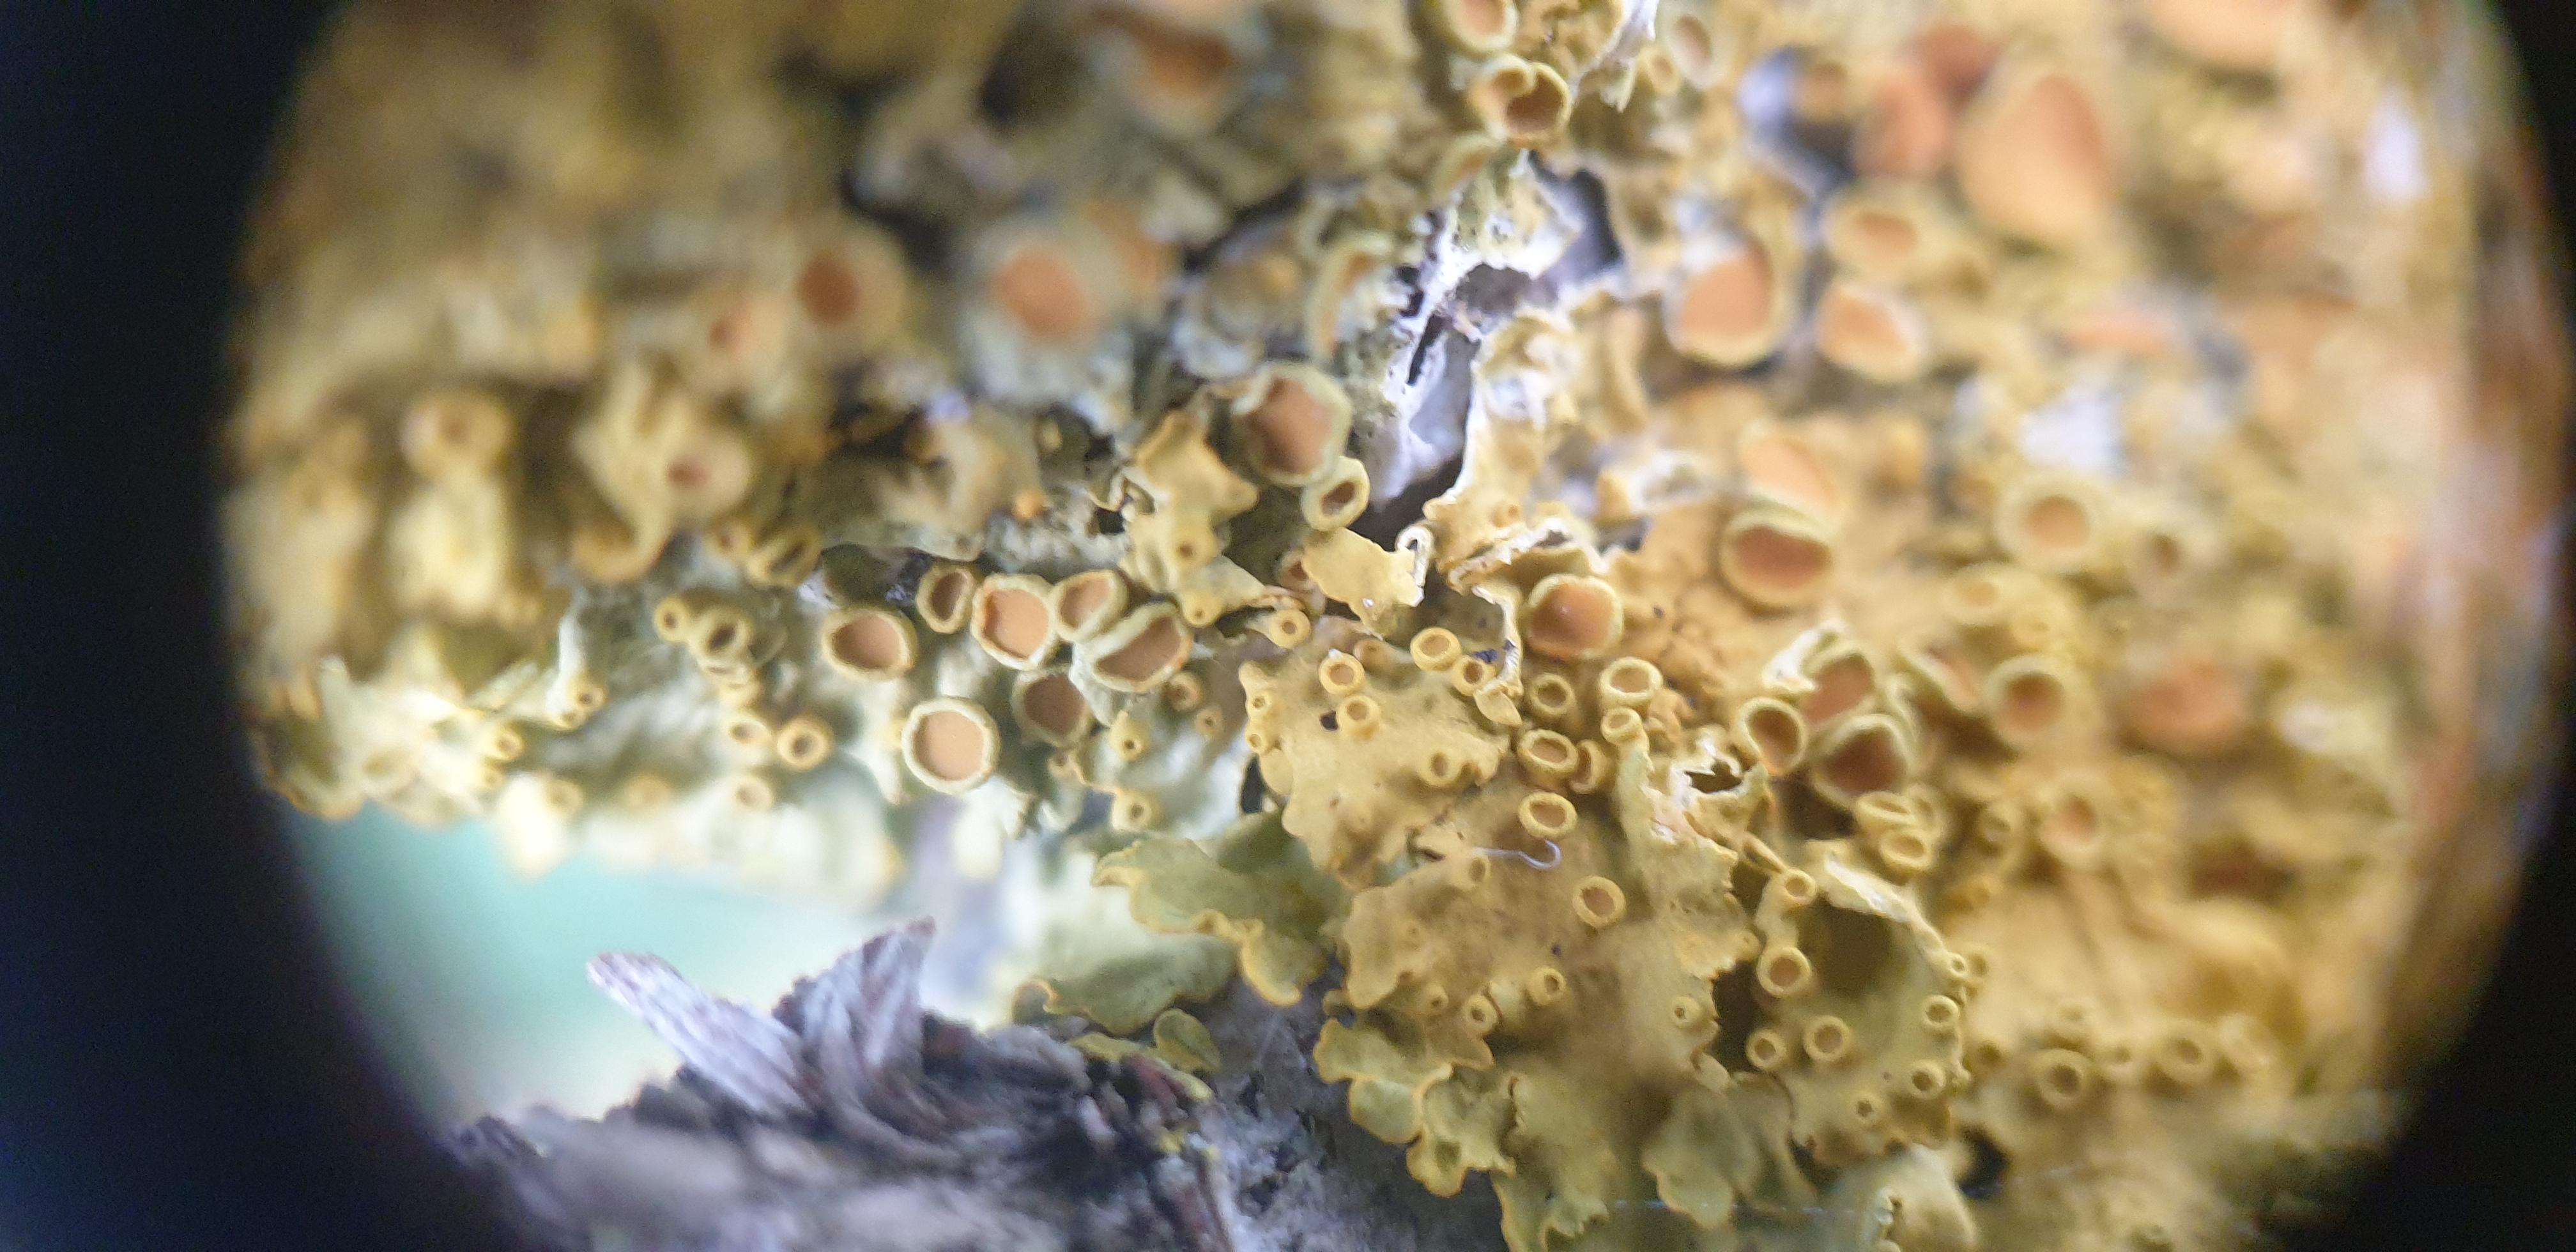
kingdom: Fungi
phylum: Ascomycota
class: Lecanoromycetes
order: Teloschistales
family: Teloschistaceae
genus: Xanthoria
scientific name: Xanthoria parietina
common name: almindelig væggelav
